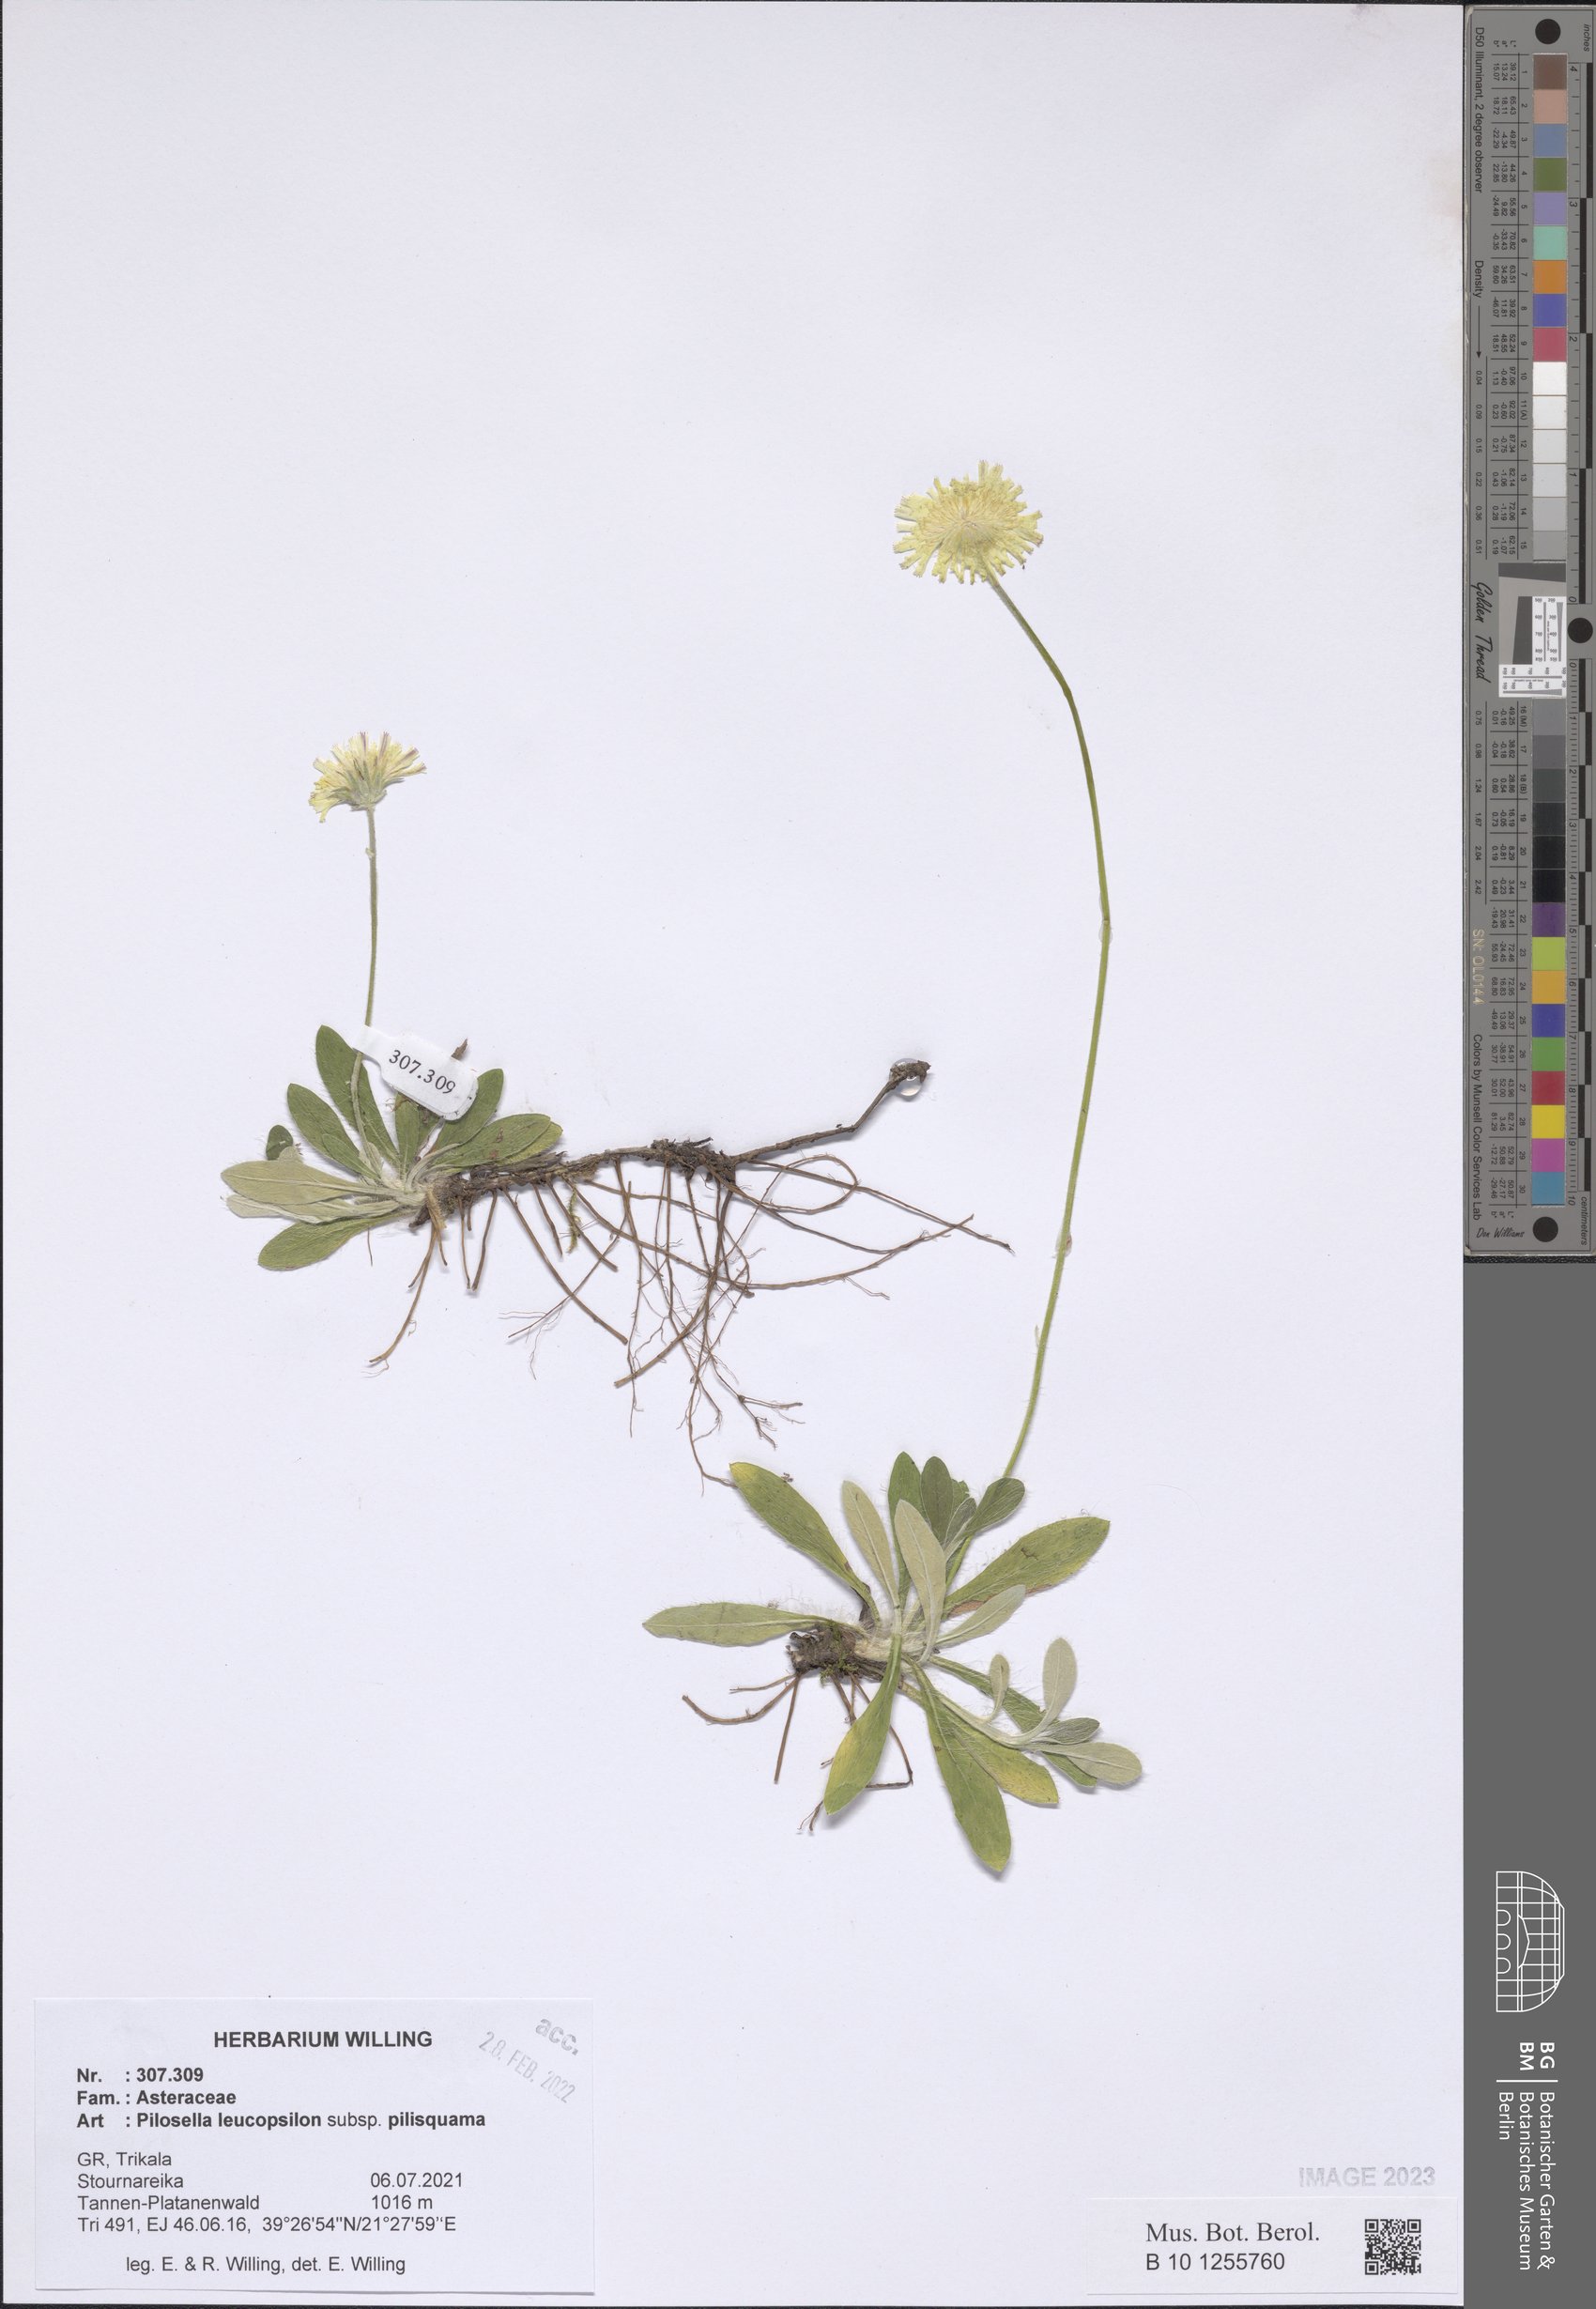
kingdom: Plantae
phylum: Tracheophyta
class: Magnoliopsida
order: Asterales
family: Asteraceae
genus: Pilosella
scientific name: Pilosella leucopsilon
